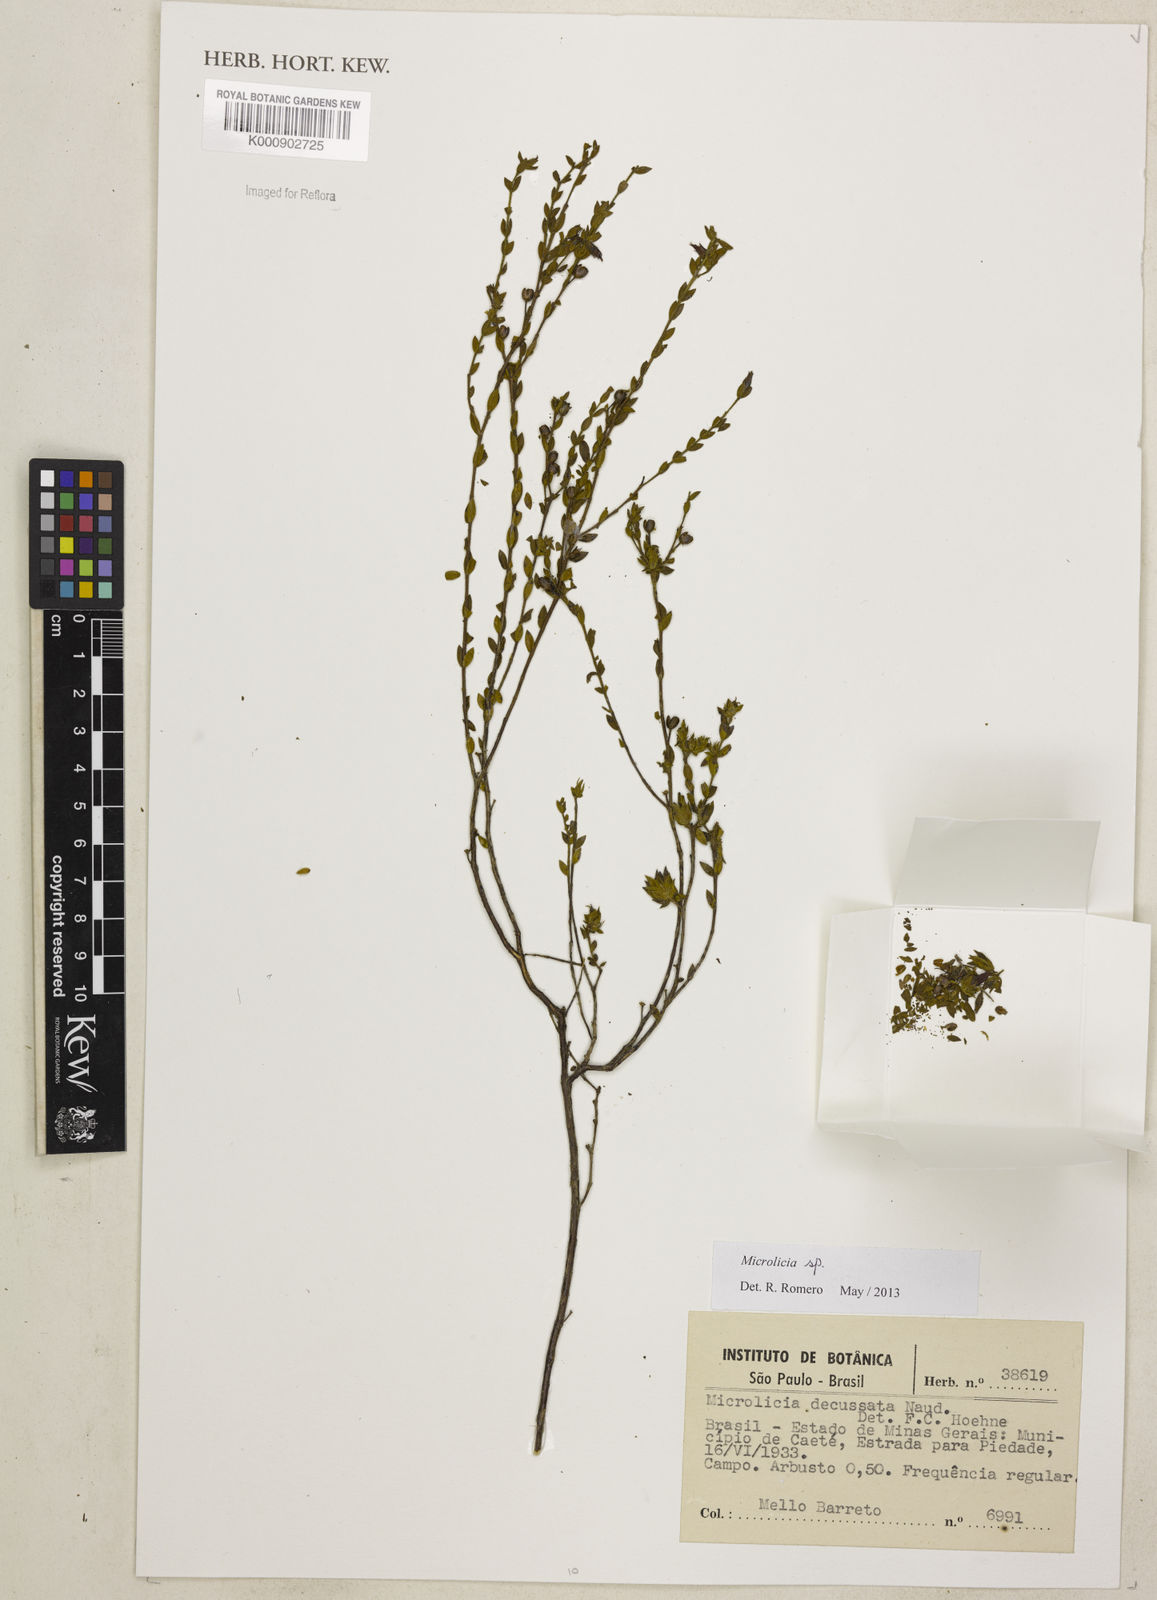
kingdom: Plantae
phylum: Tracheophyta
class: Magnoliopsida
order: Myrtales
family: Melastomataceae
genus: Microlicia
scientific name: Microlicia
